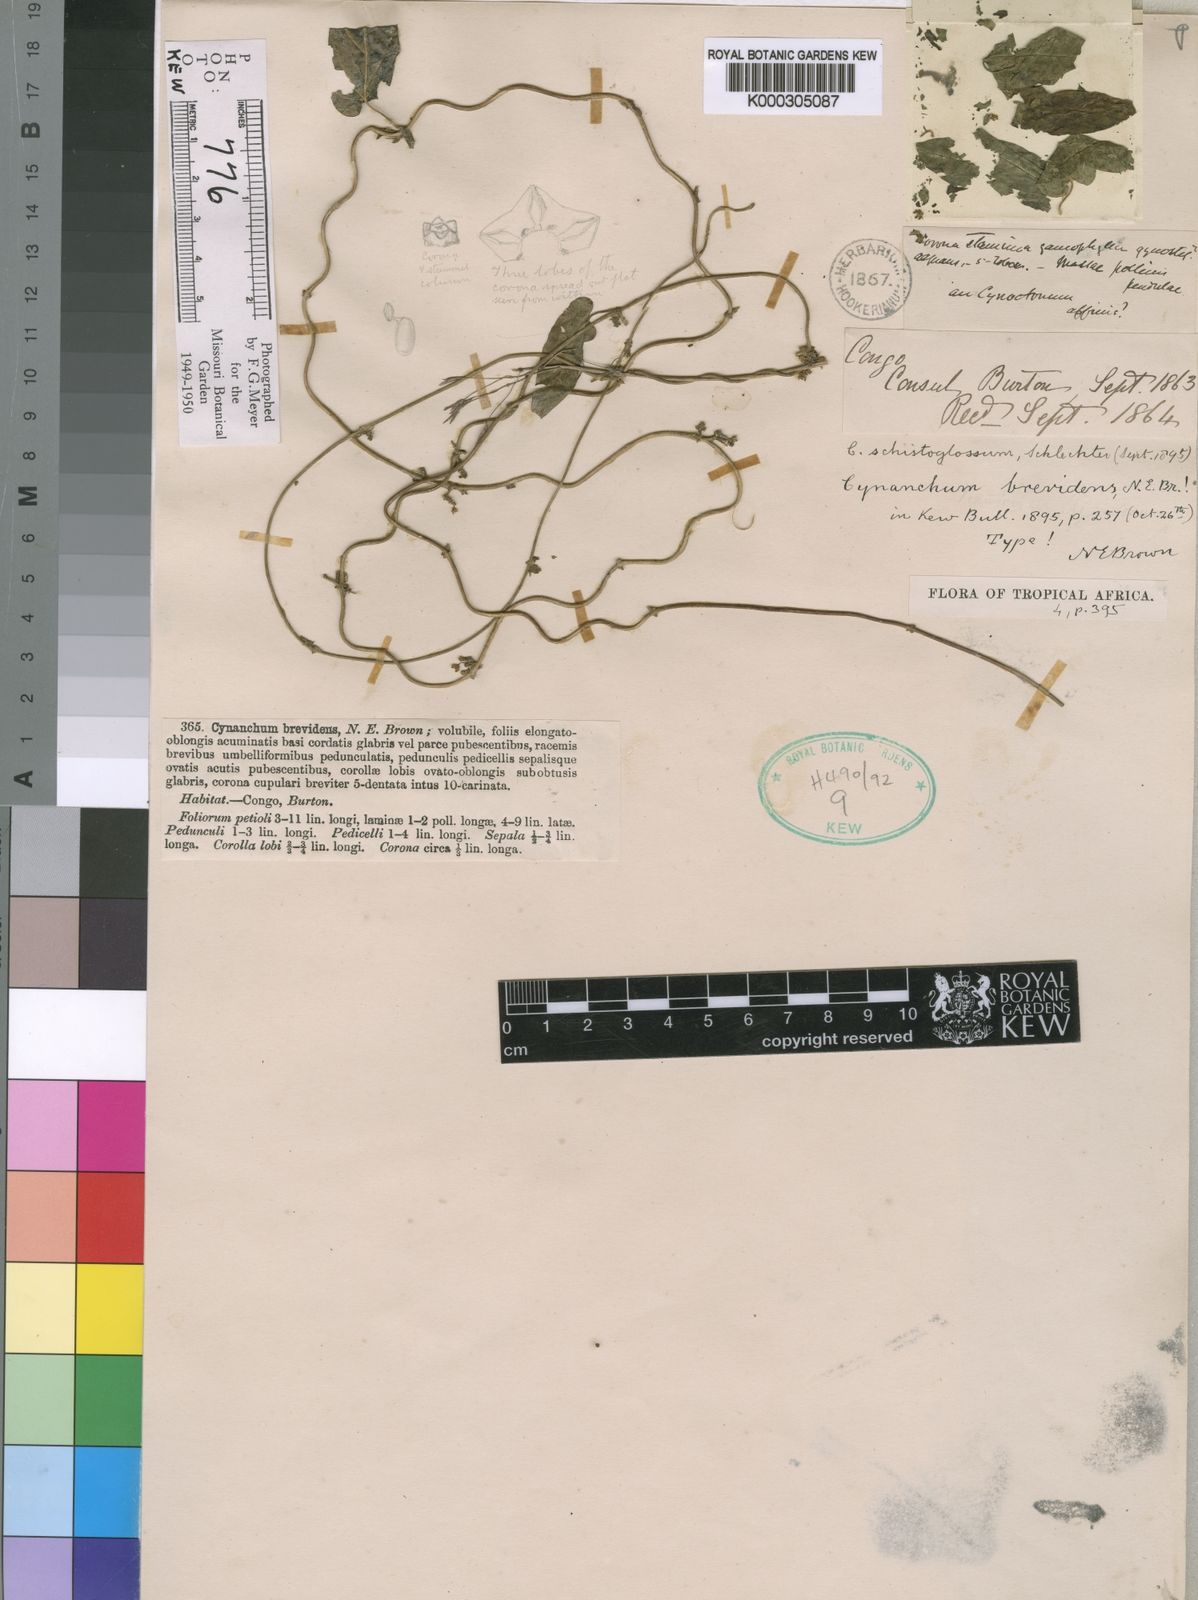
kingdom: Plantae
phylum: Tracheophyta
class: Magnoliopsida
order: Gentianales
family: Apocynaceae
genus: Cynanchum
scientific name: Cynanchum schistoglossum
